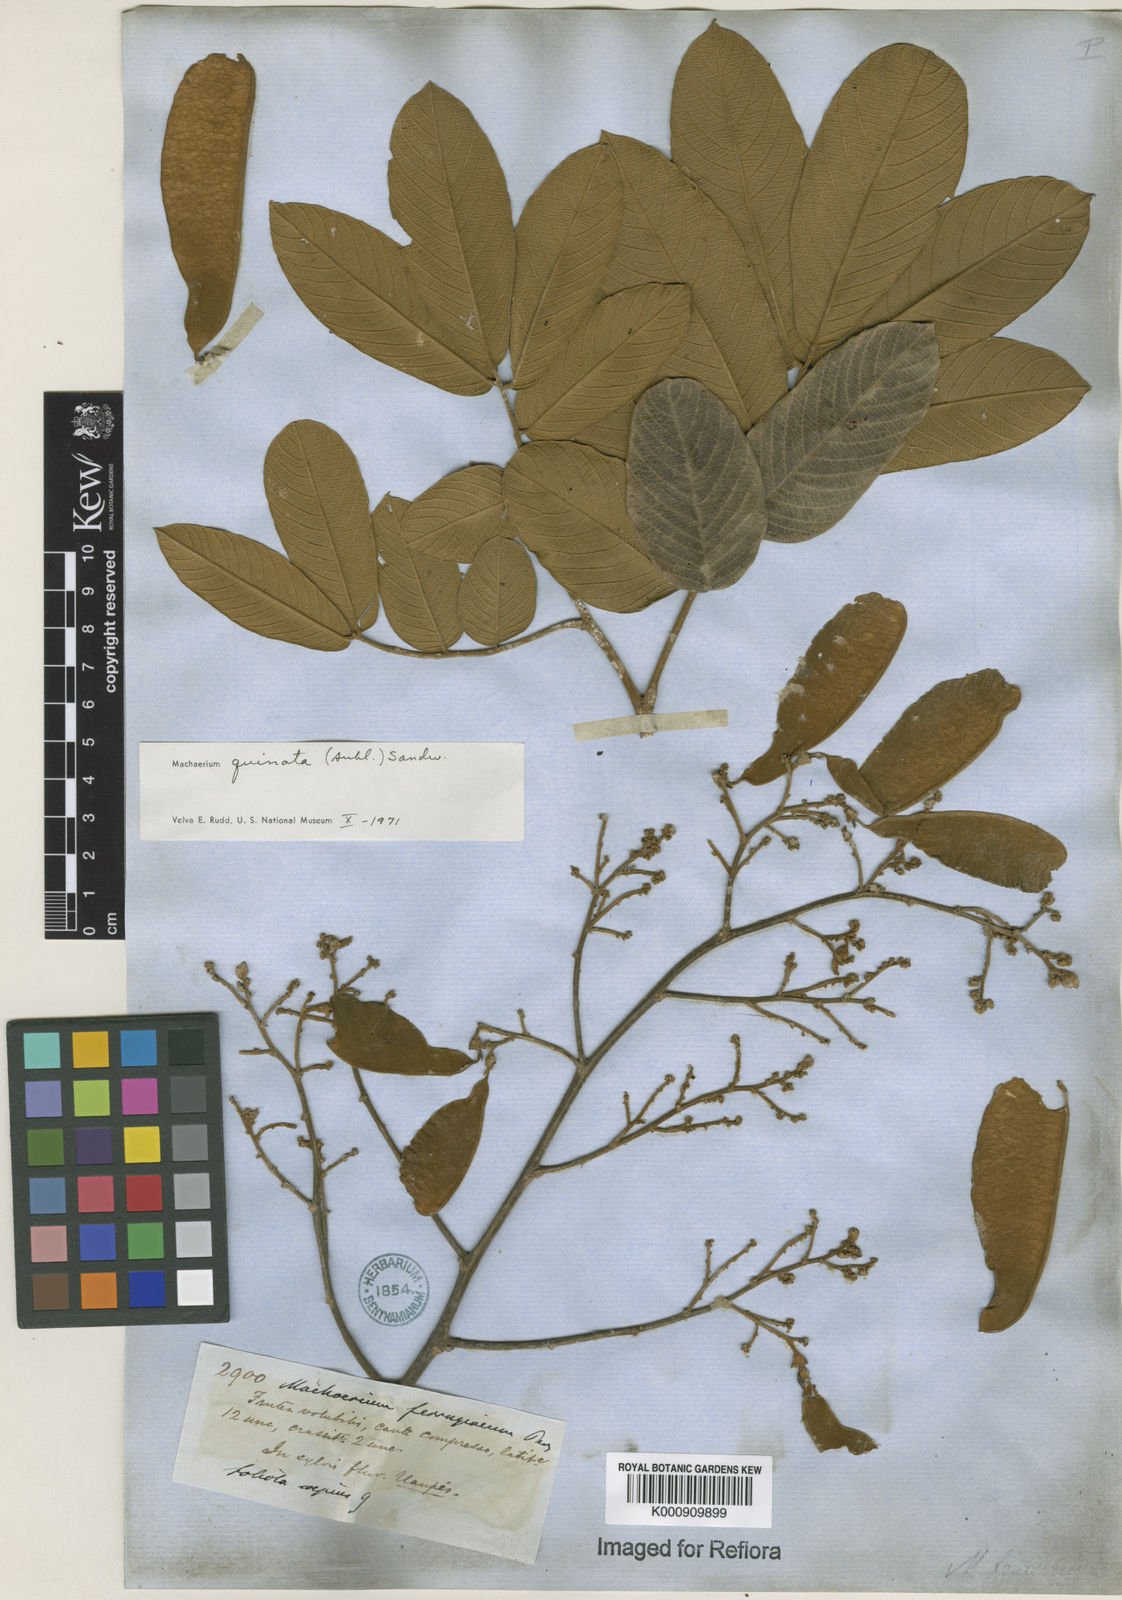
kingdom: Plantae
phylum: Tracheophyta
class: Magnoliopsida
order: Fabales
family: Fabaceae
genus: Machaerium
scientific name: Machaerium quinata
